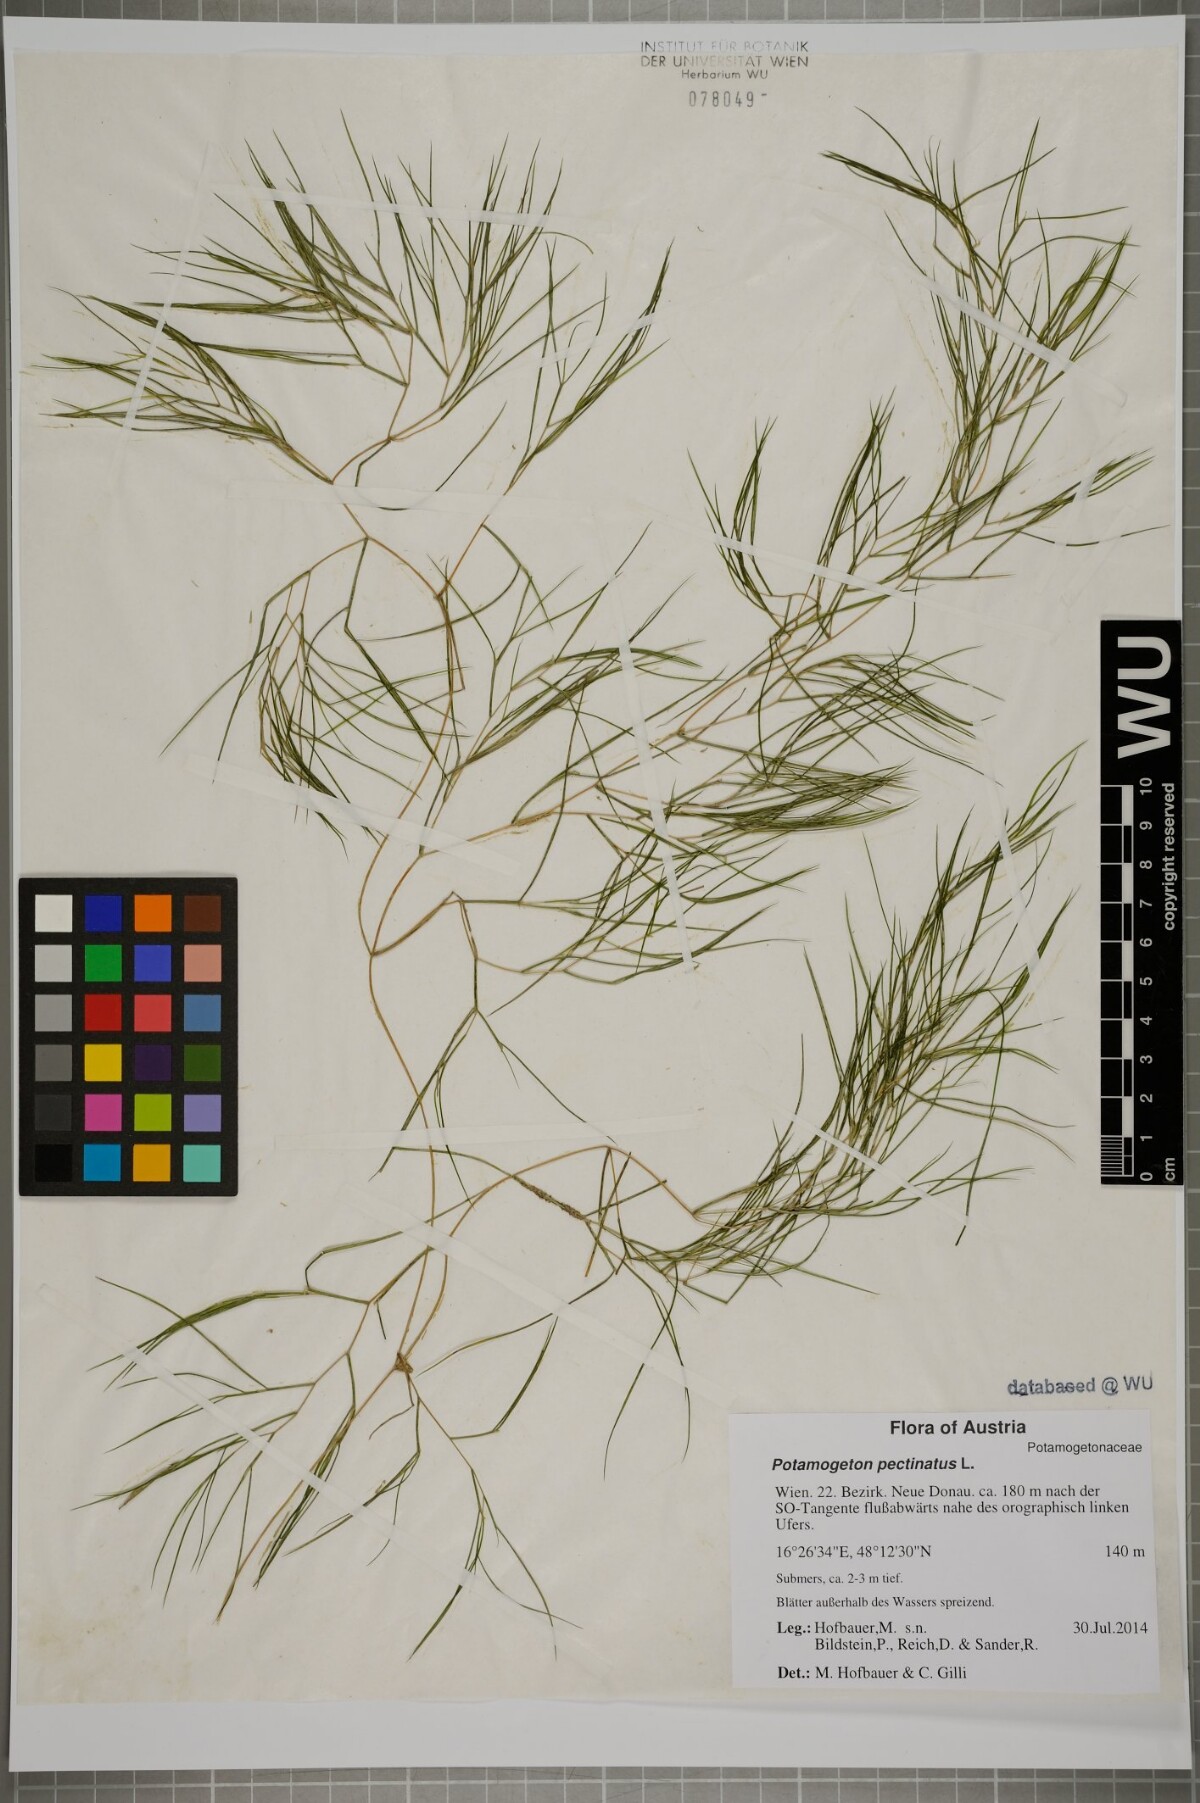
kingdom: Plantae
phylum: Tracheophyta
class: Liliopsida
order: Alismatales
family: Potamogetonaceae
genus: Stuckenia
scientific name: Stuckenia pectinata
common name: Sago pondweed
